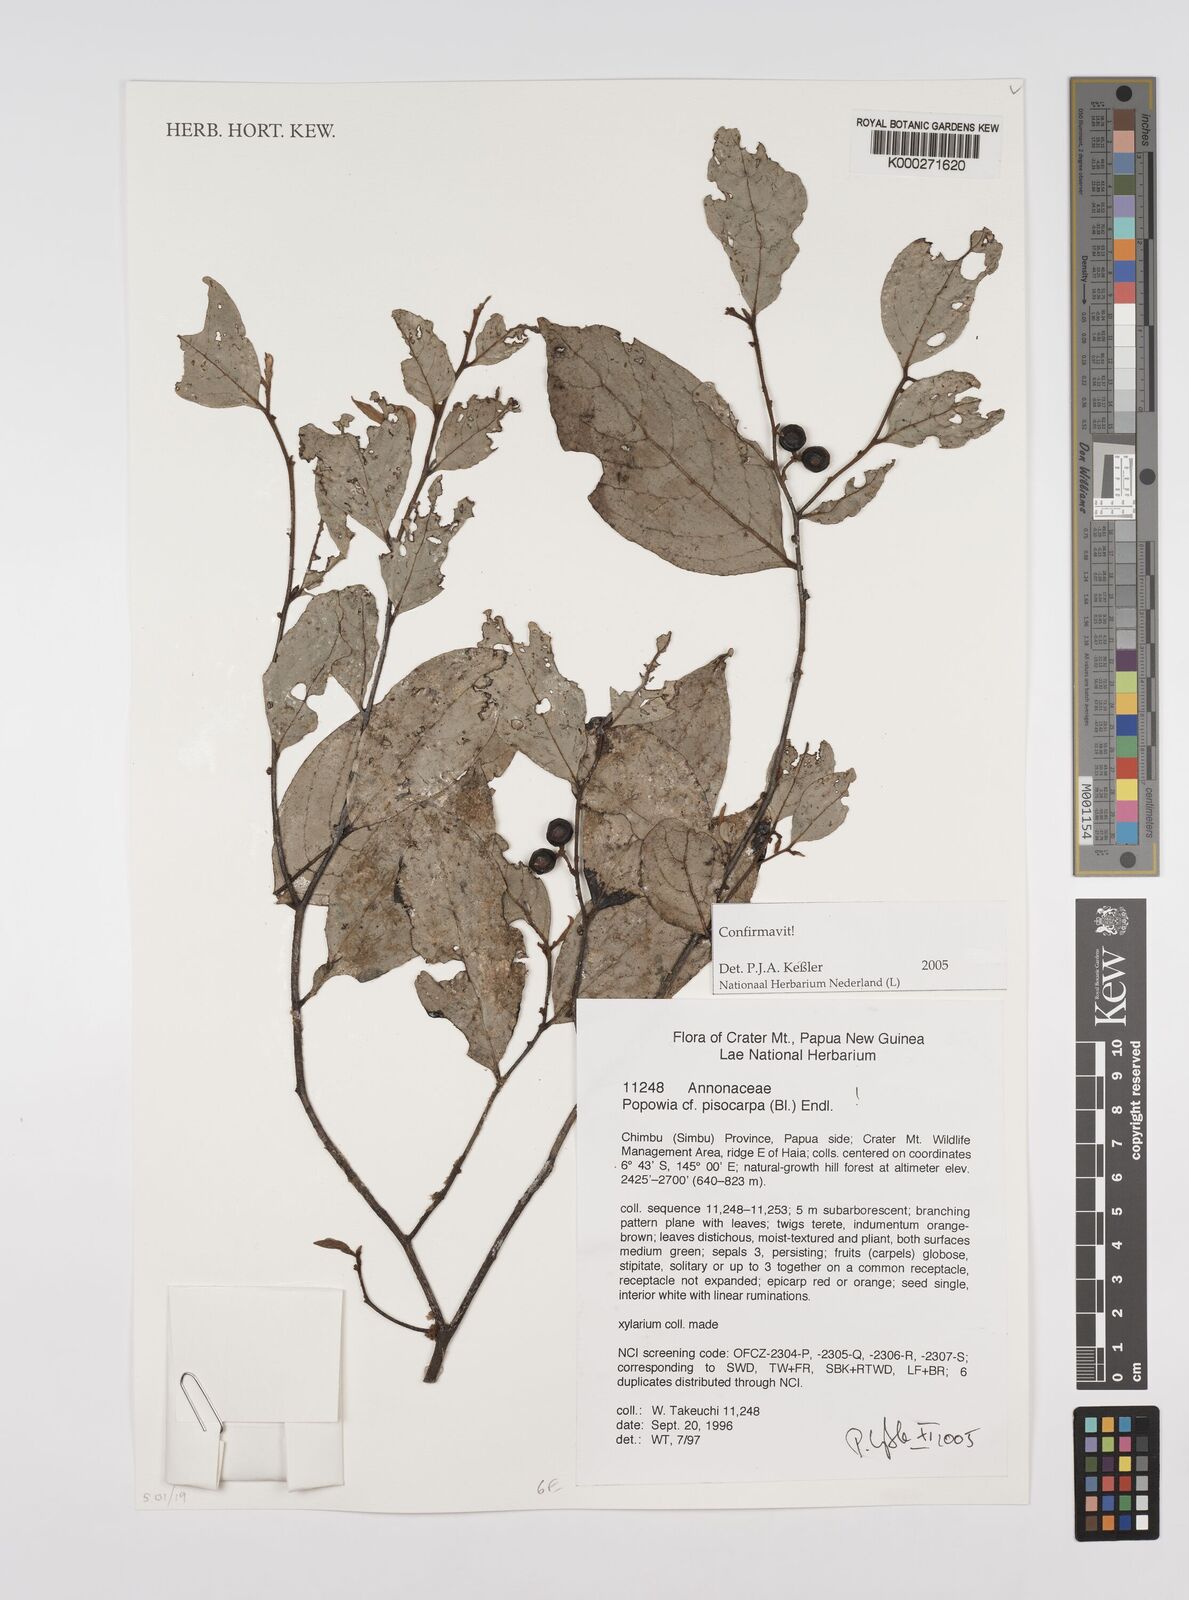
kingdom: Plantae
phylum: Tracheophyta
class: Magnoliopsida
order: Magnoliales
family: Annonaceae
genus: Popowia
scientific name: Popowia
